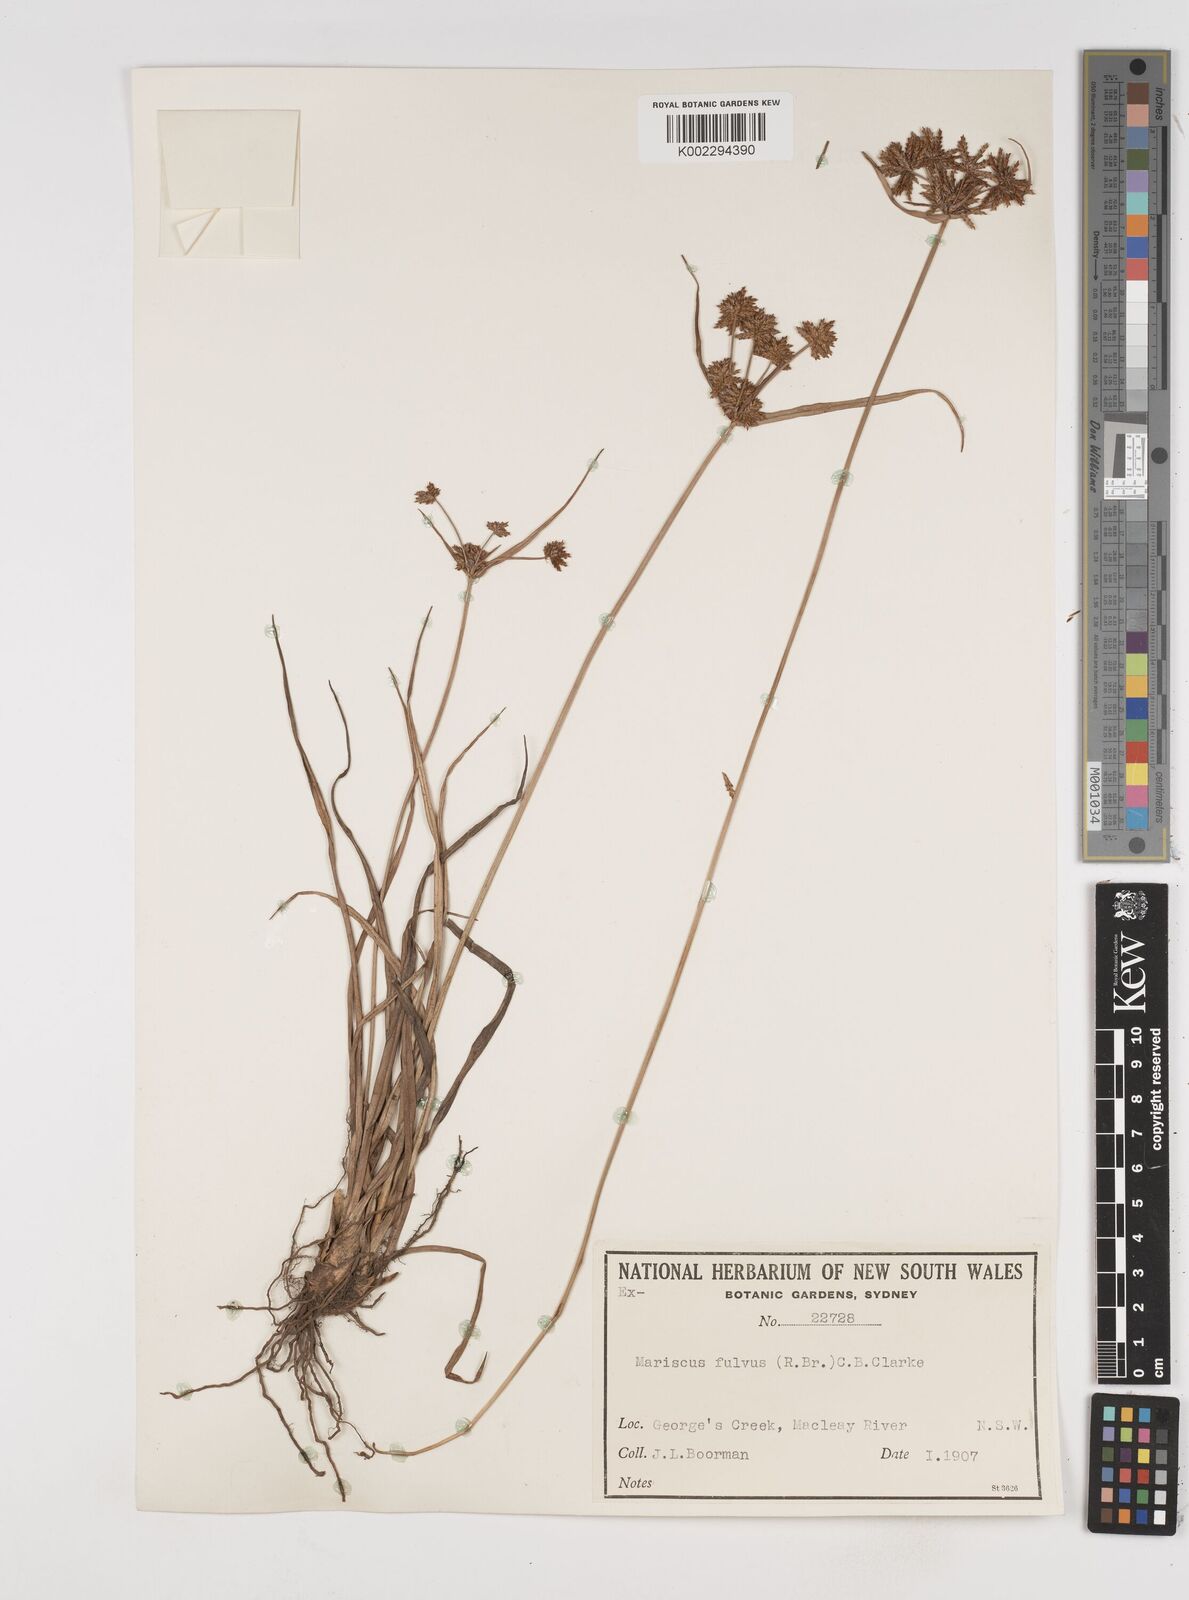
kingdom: Plantae
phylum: Tracheophyta
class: Liliopsida
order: Poales
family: Cyperaceae
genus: Cyperus
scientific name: Cyperus fulvus
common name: Sticky sedge
